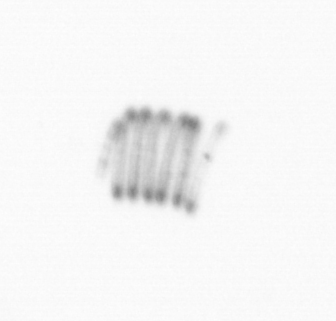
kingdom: Chromista
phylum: Ochrophyta
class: Bacillariophyceae
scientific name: Bacillariophyceae
